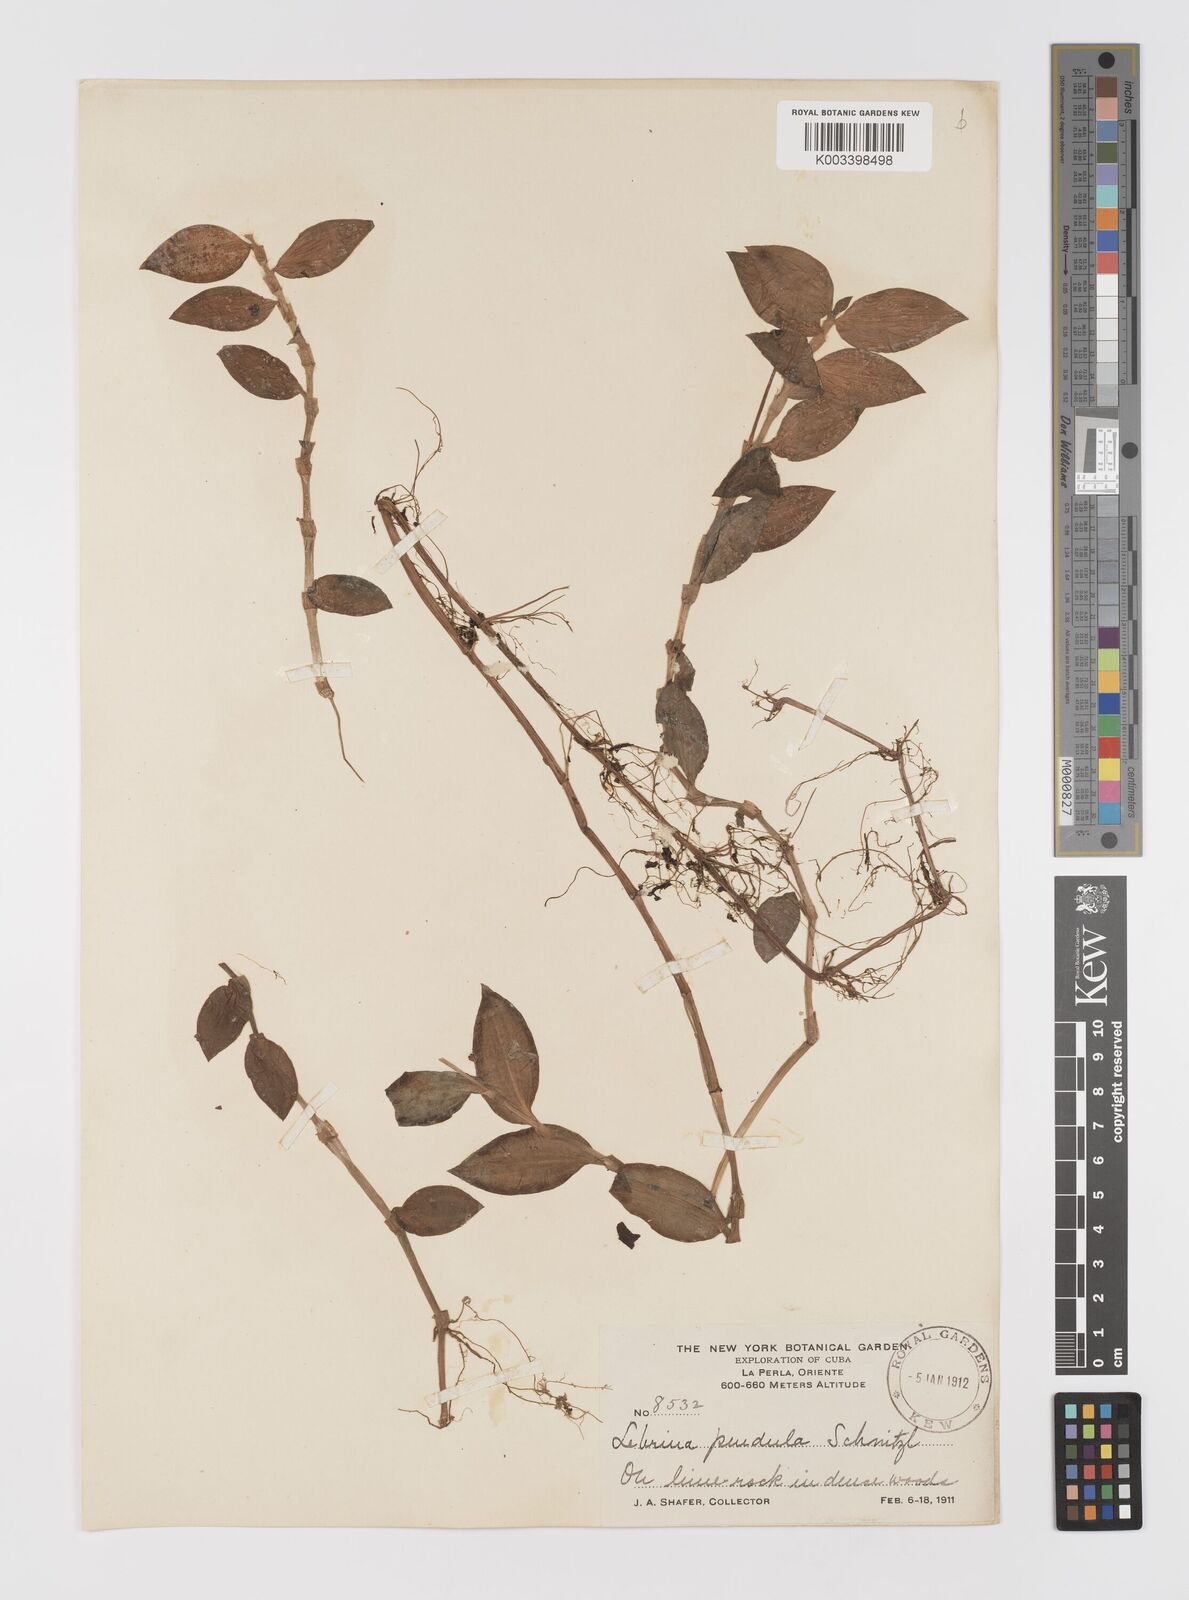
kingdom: Plantae
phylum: Tracheophyta
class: Liliopsida
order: Commelinales
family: Commelinaceae
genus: Tradescantia
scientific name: Tradescantia zebrina
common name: Inchplant
